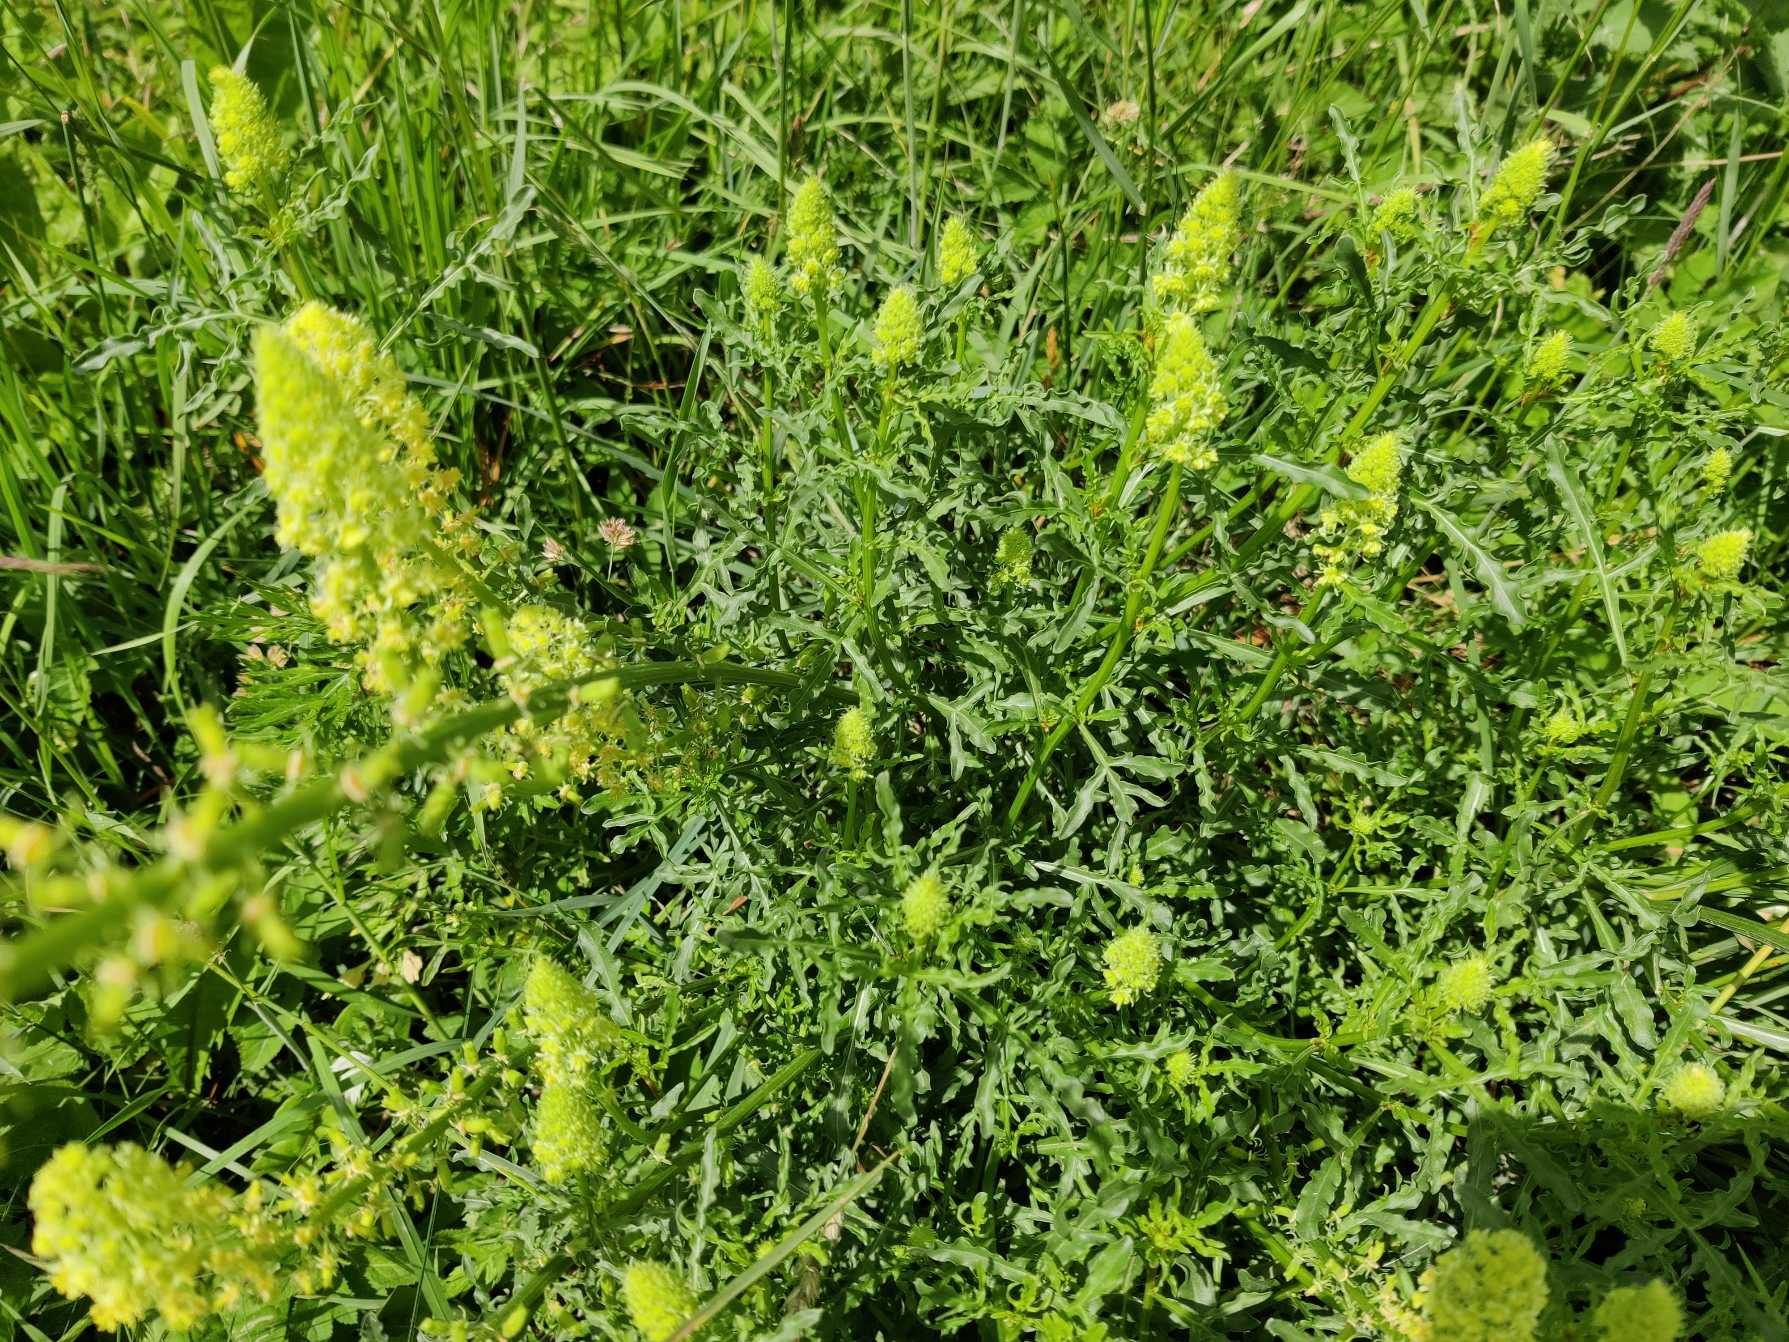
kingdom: Plantae
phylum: Tracheophyta
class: Magnoliopsida
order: Brassicales
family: Resedaceae
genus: Reseda
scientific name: Reseda lutea
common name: Gul reseda
